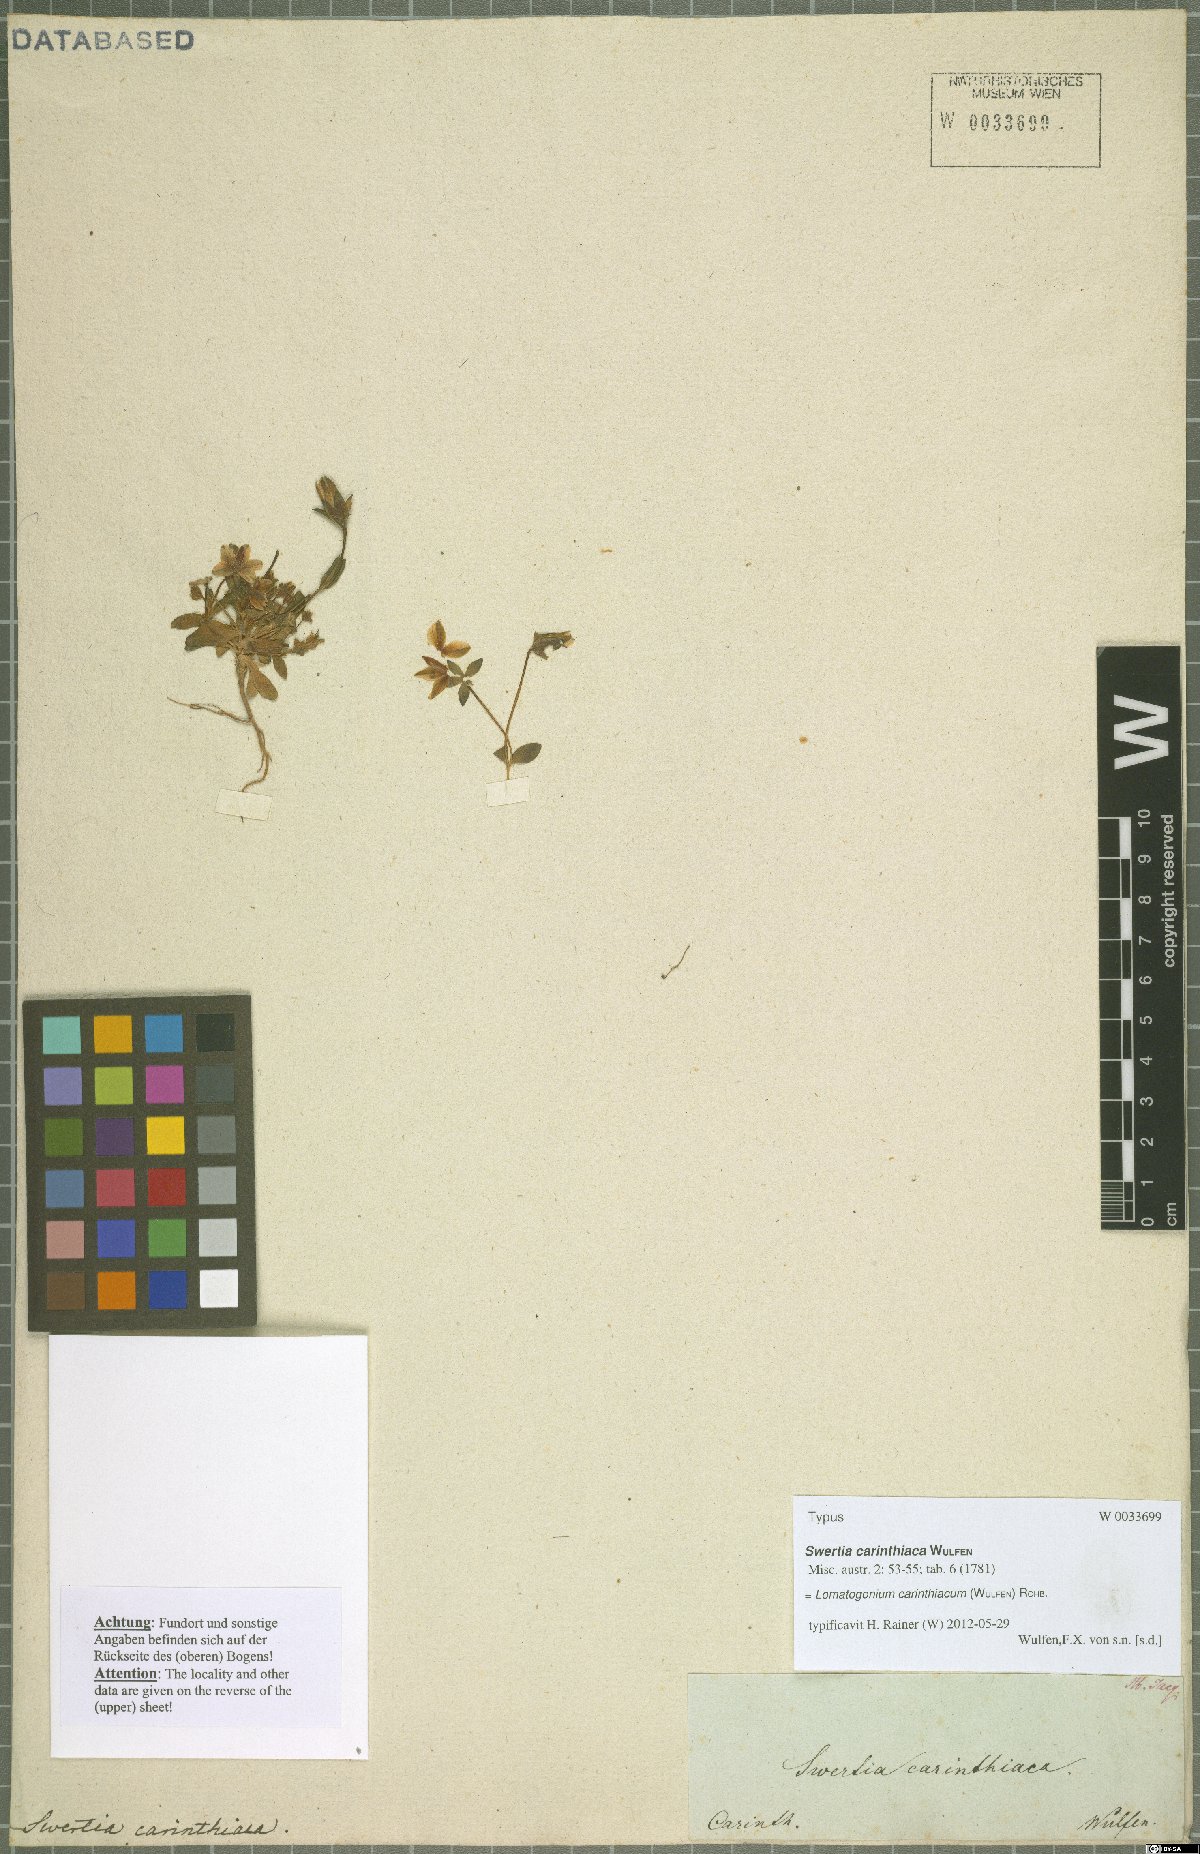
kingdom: Plantae
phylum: Tracheophyta
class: Magnoliopsida
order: Gentianales
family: Gentianaceae
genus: Lomatogonium
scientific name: Lomatogonium carinthiacum
